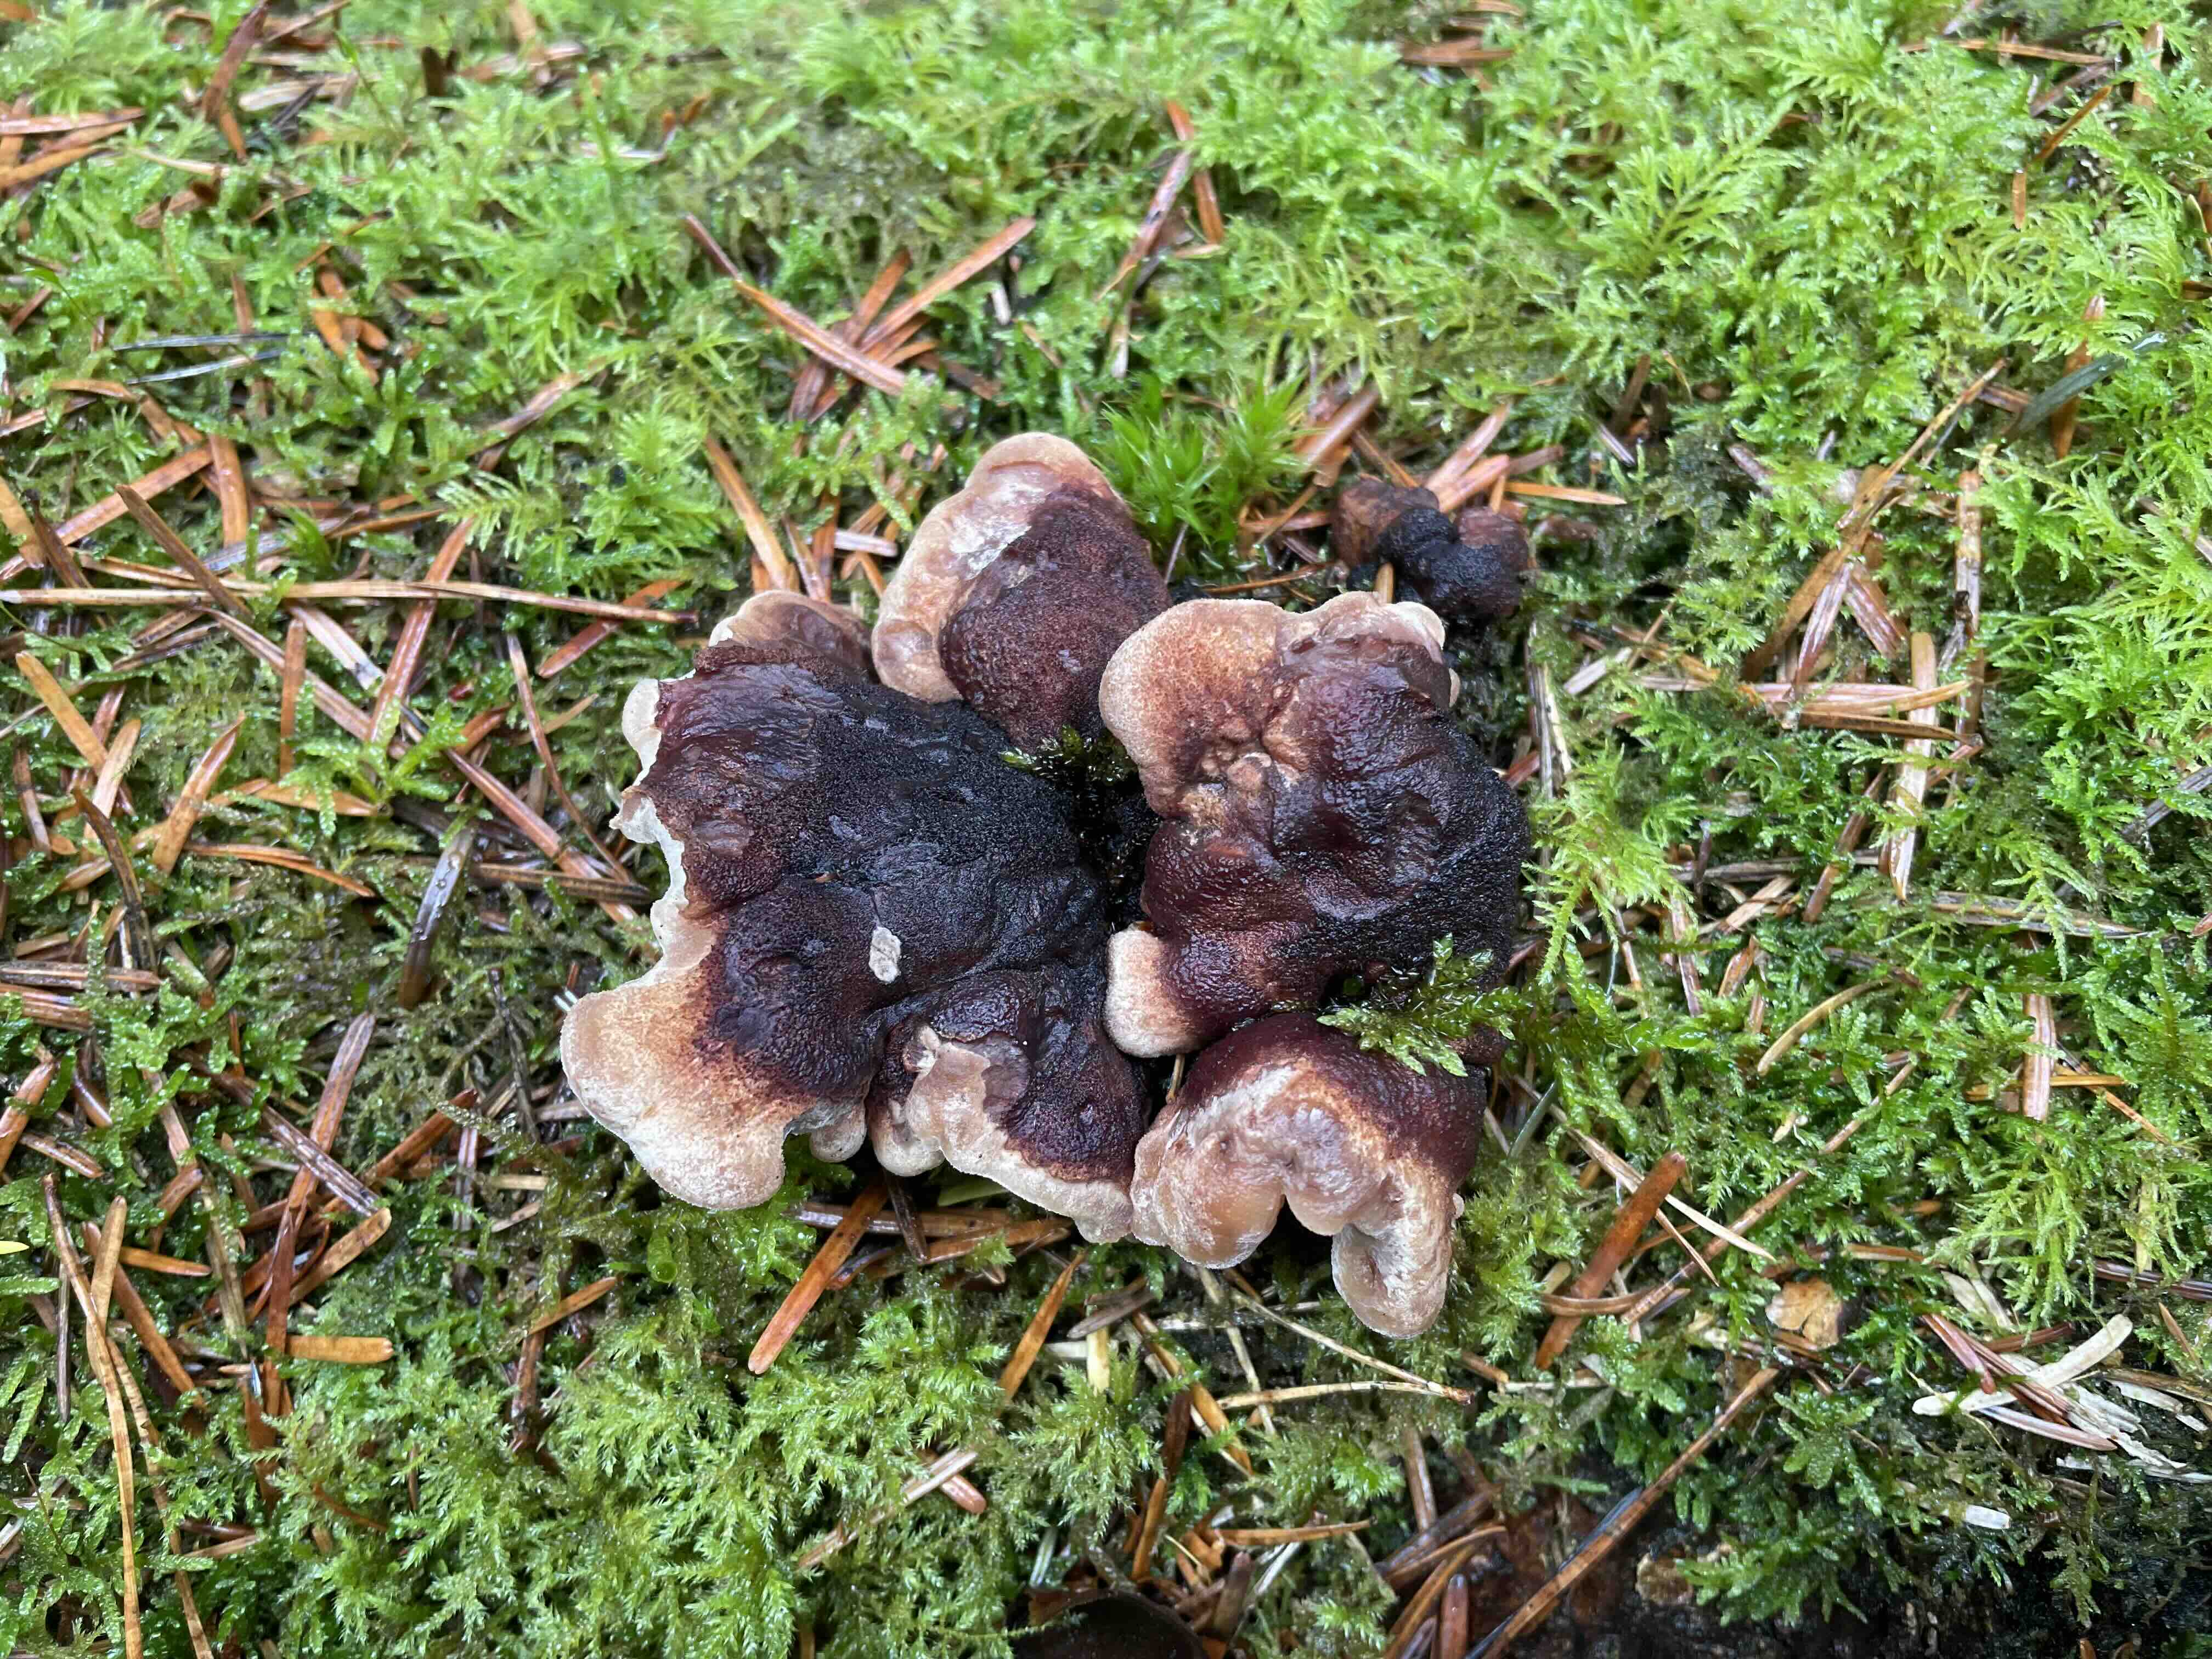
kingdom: Fungi
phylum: Basidiomycota
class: Agaricomycetes
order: Polyporales
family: Ischnodermataceae
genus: Ischnoderma
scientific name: Ischnoderma benzoinum
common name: gran-tjæreporesvamp
